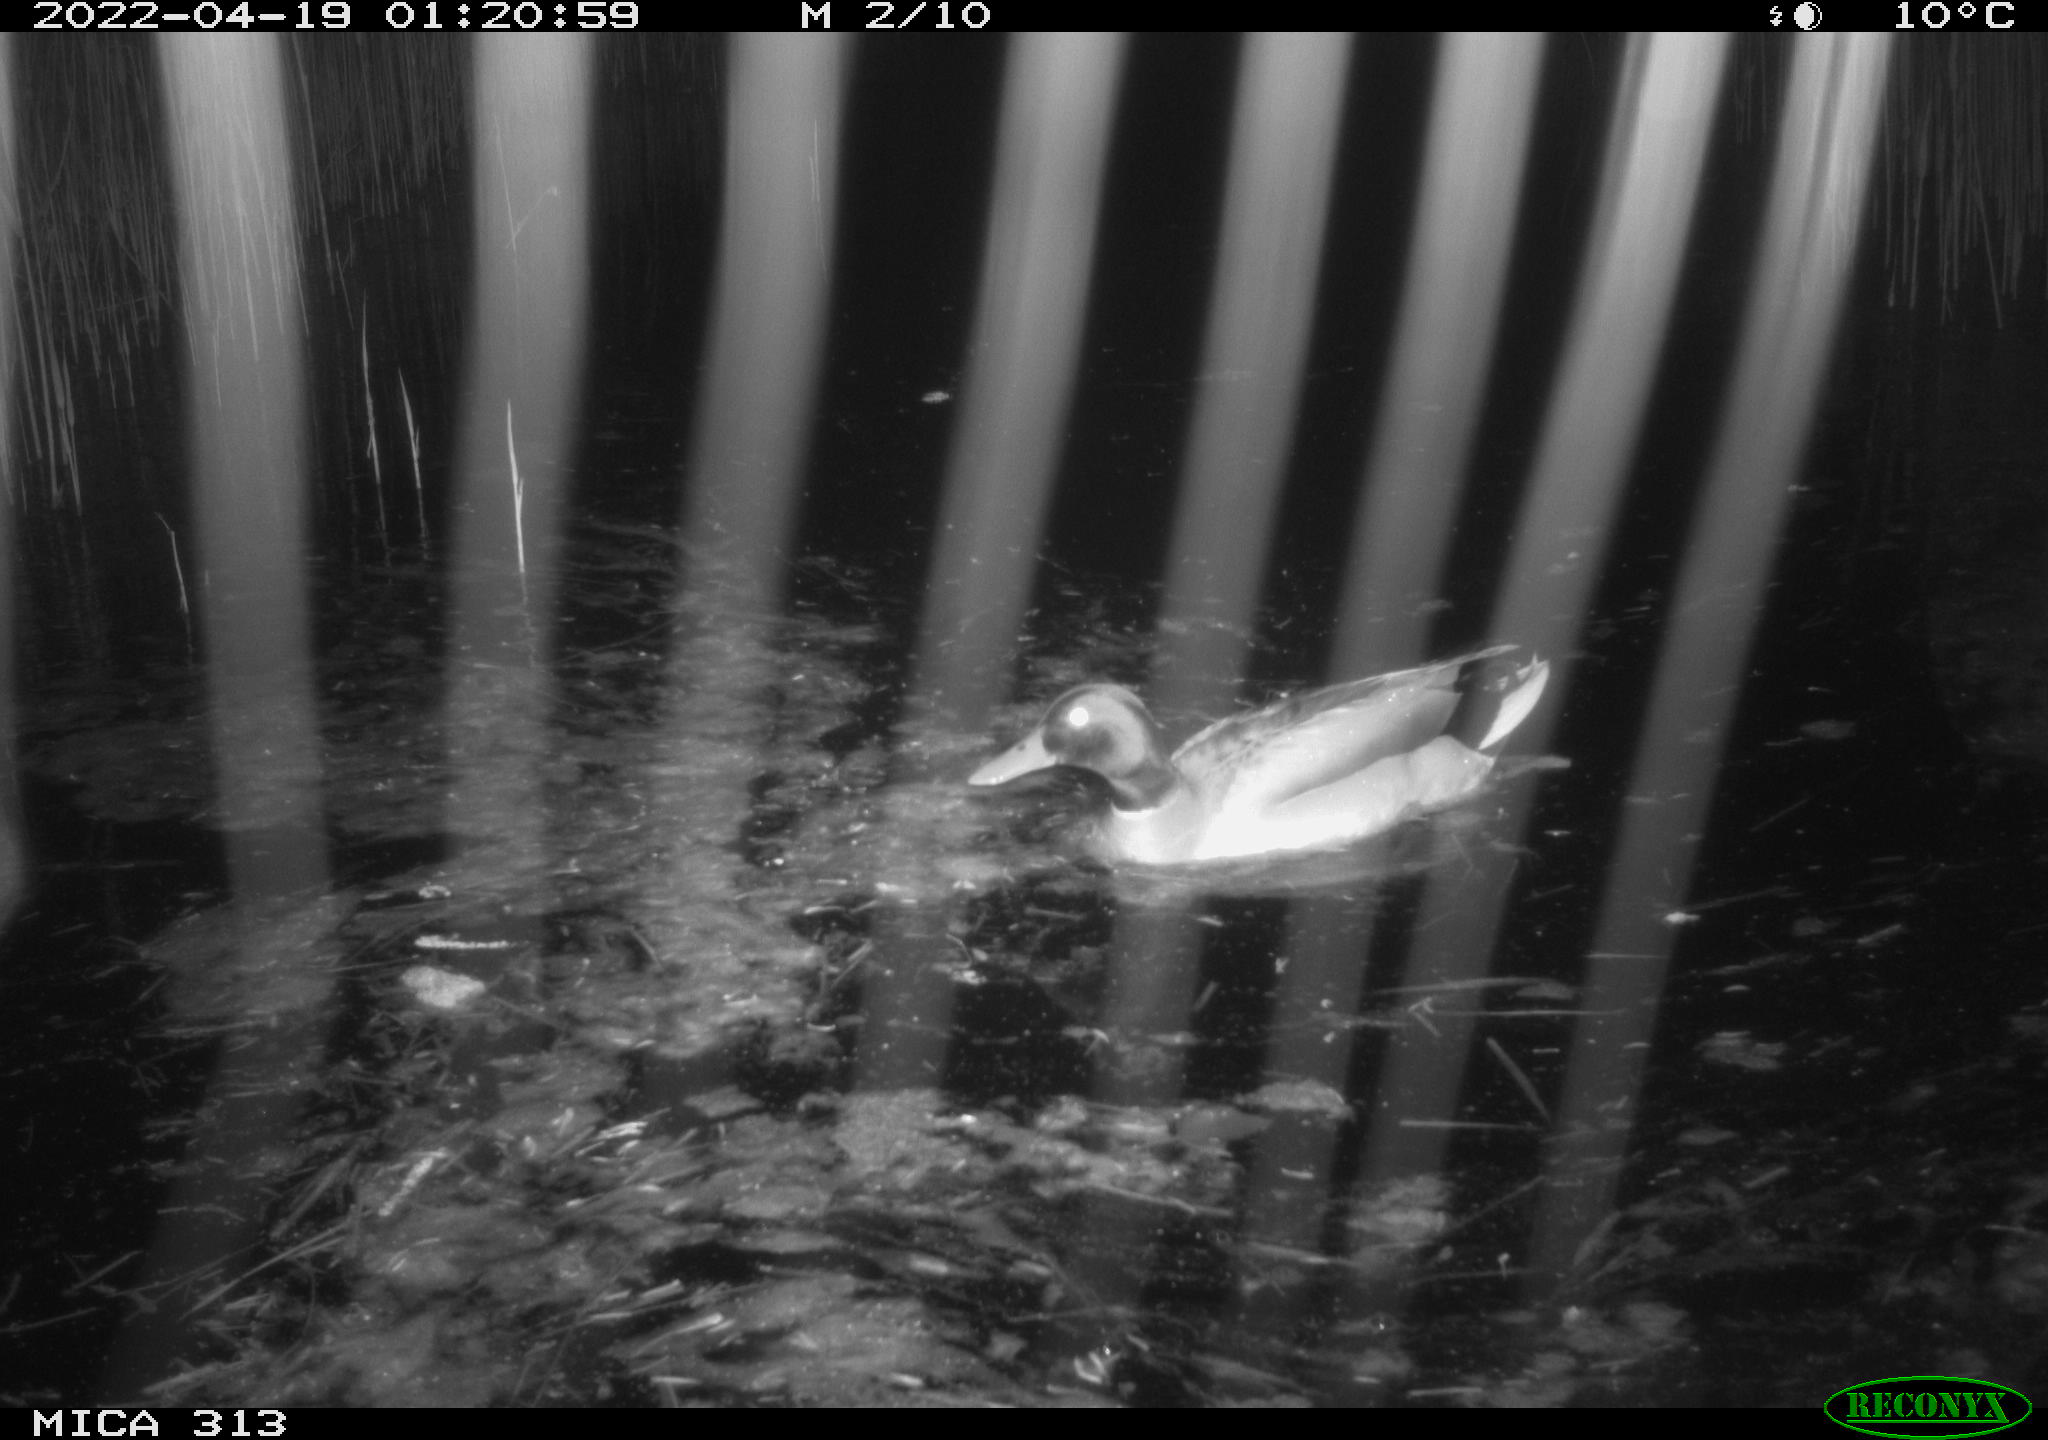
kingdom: Animalia
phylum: Chordata
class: Aves
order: Anseriformes
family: Anatidae
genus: Anas
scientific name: Anas platyrhynchos
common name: Mallard
